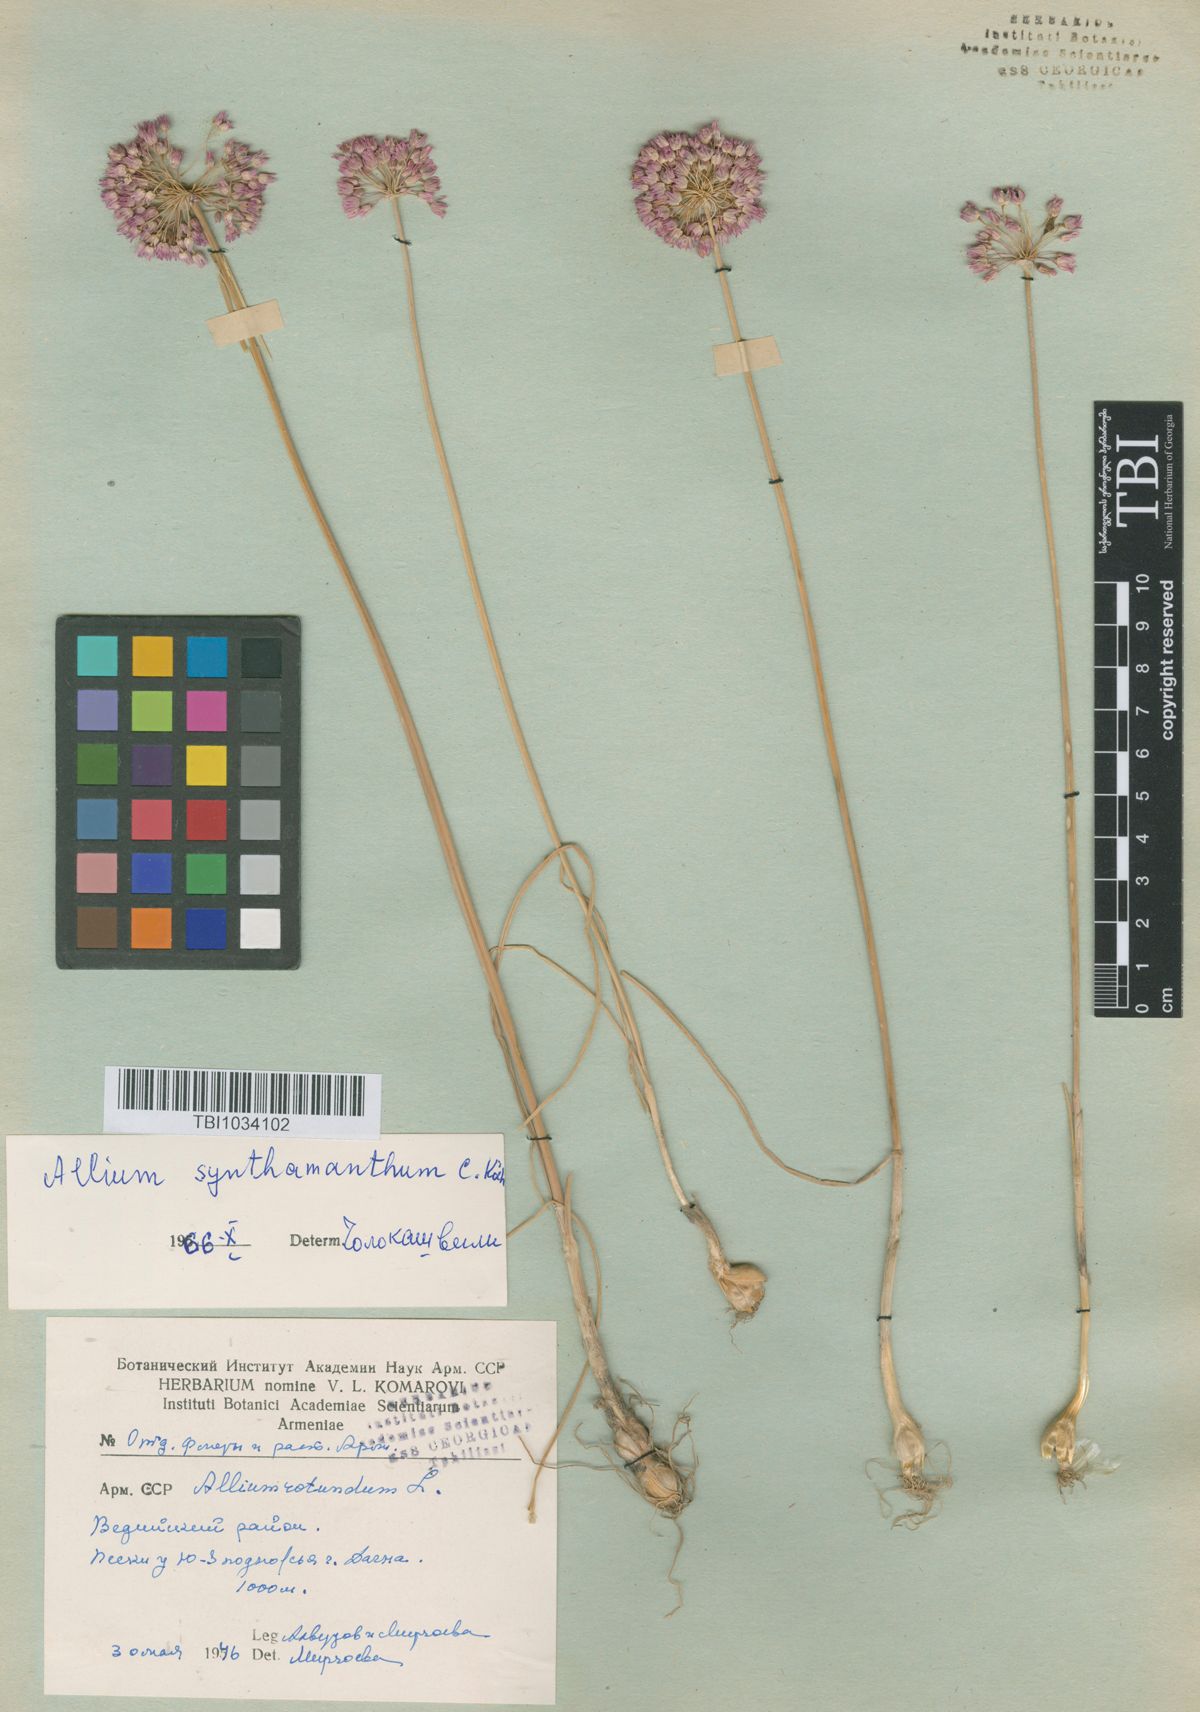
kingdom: Plantae
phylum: Tracheophyta
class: Liliopsida
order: Asparagales
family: Amaryllidaceae
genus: Allium
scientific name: Allium rubellum
